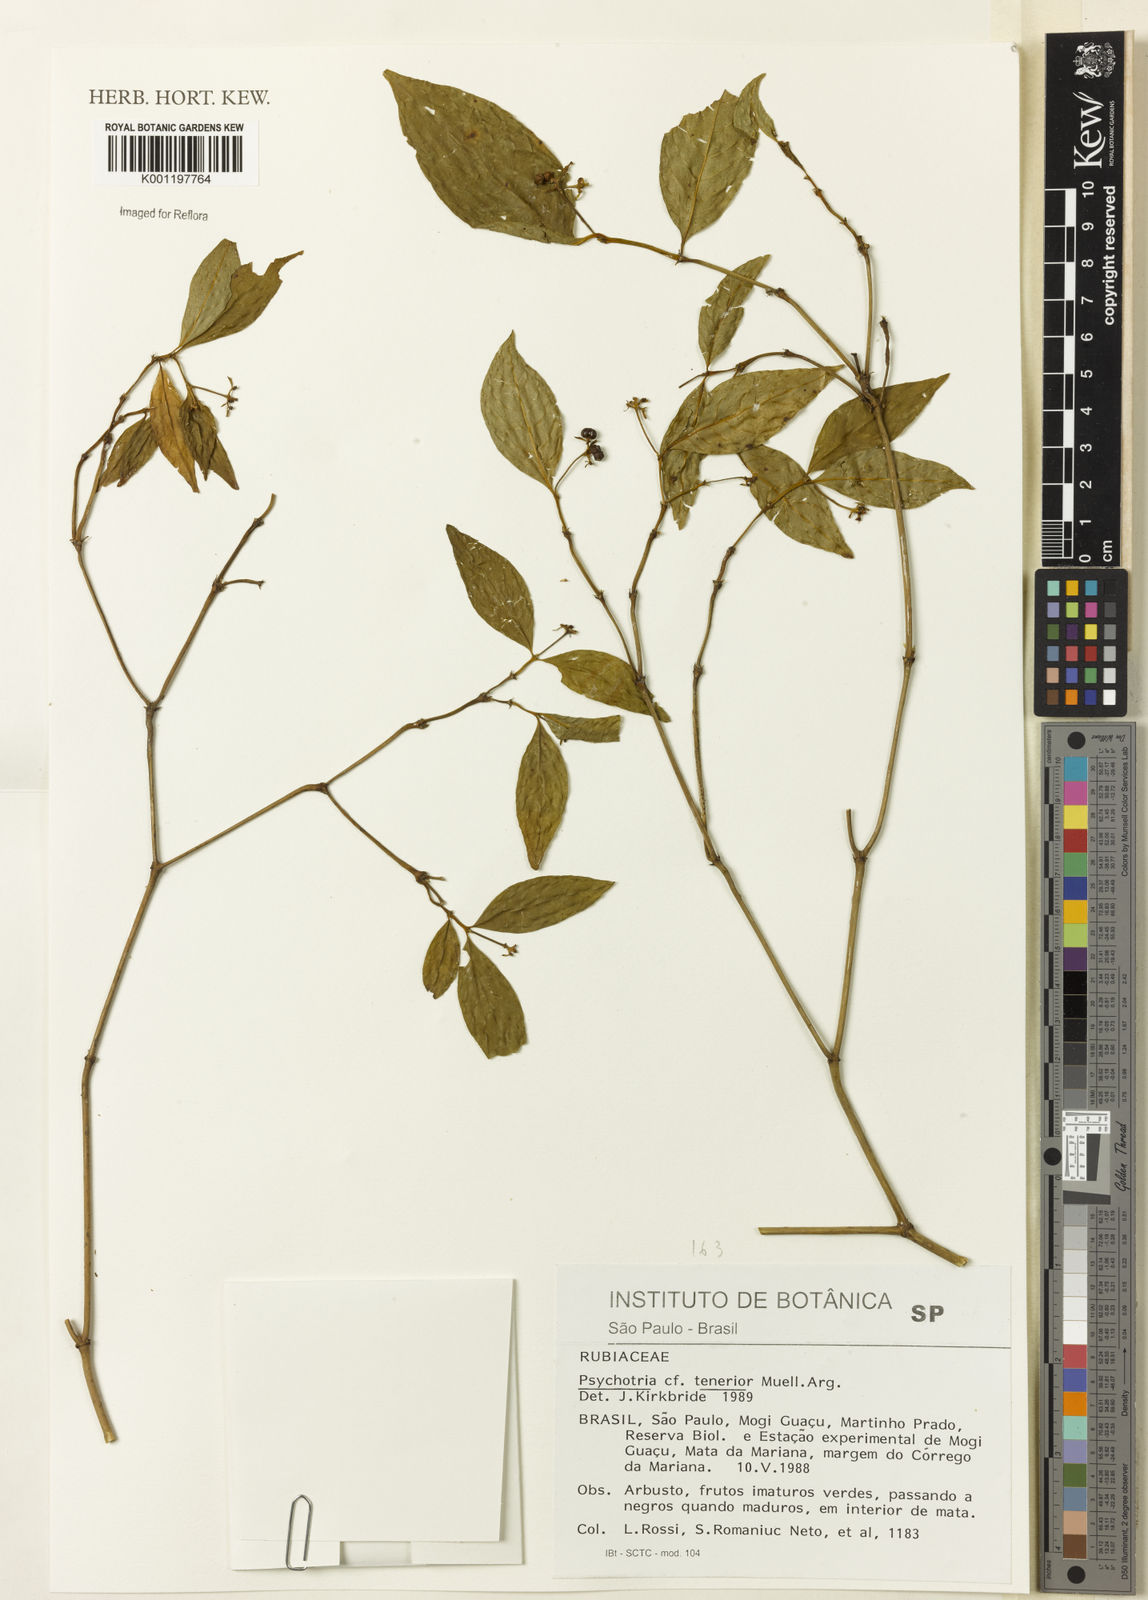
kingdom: Plantae
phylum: Tracheophyta
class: Magnoliopsida
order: Gentianales
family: Rubiaceae
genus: Psychotria
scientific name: Psychotria
